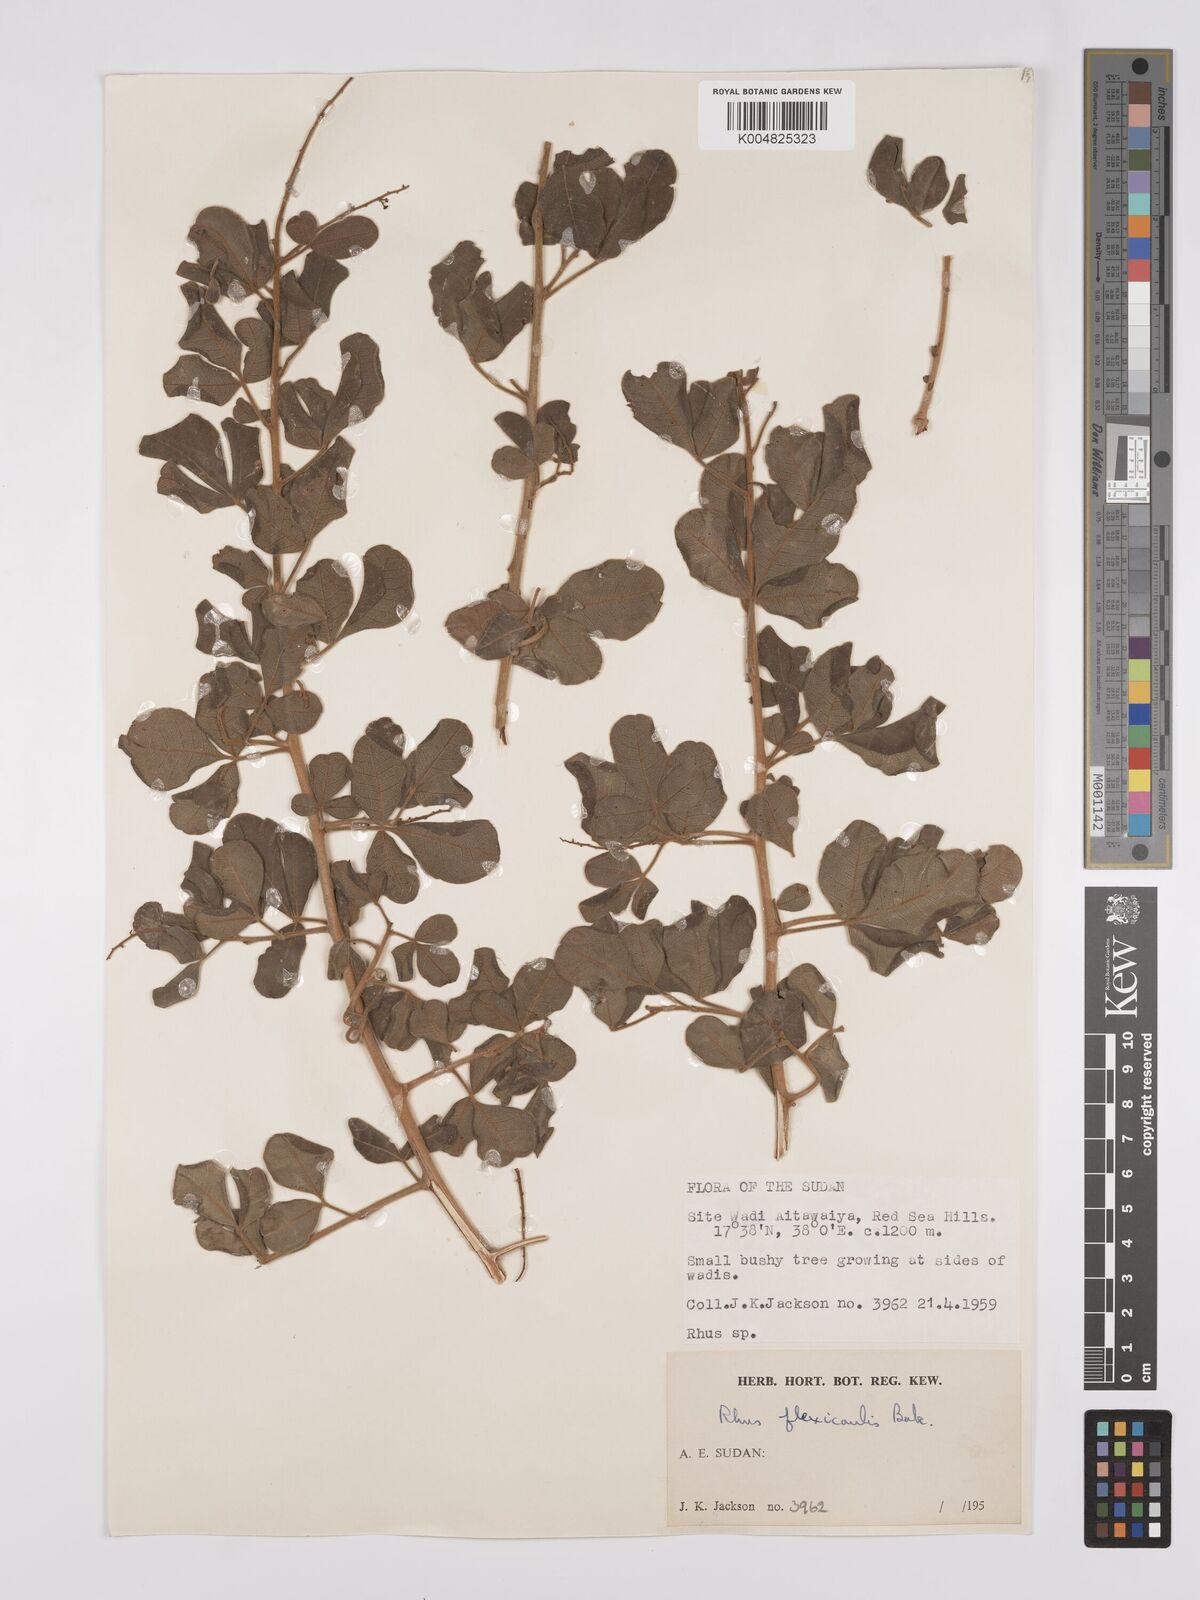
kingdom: Plantae
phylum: Tracheophyta
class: Magnoliopsida
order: Sapindales
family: Anacardiaceae
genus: Searsia
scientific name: Searsia flexicaulis
